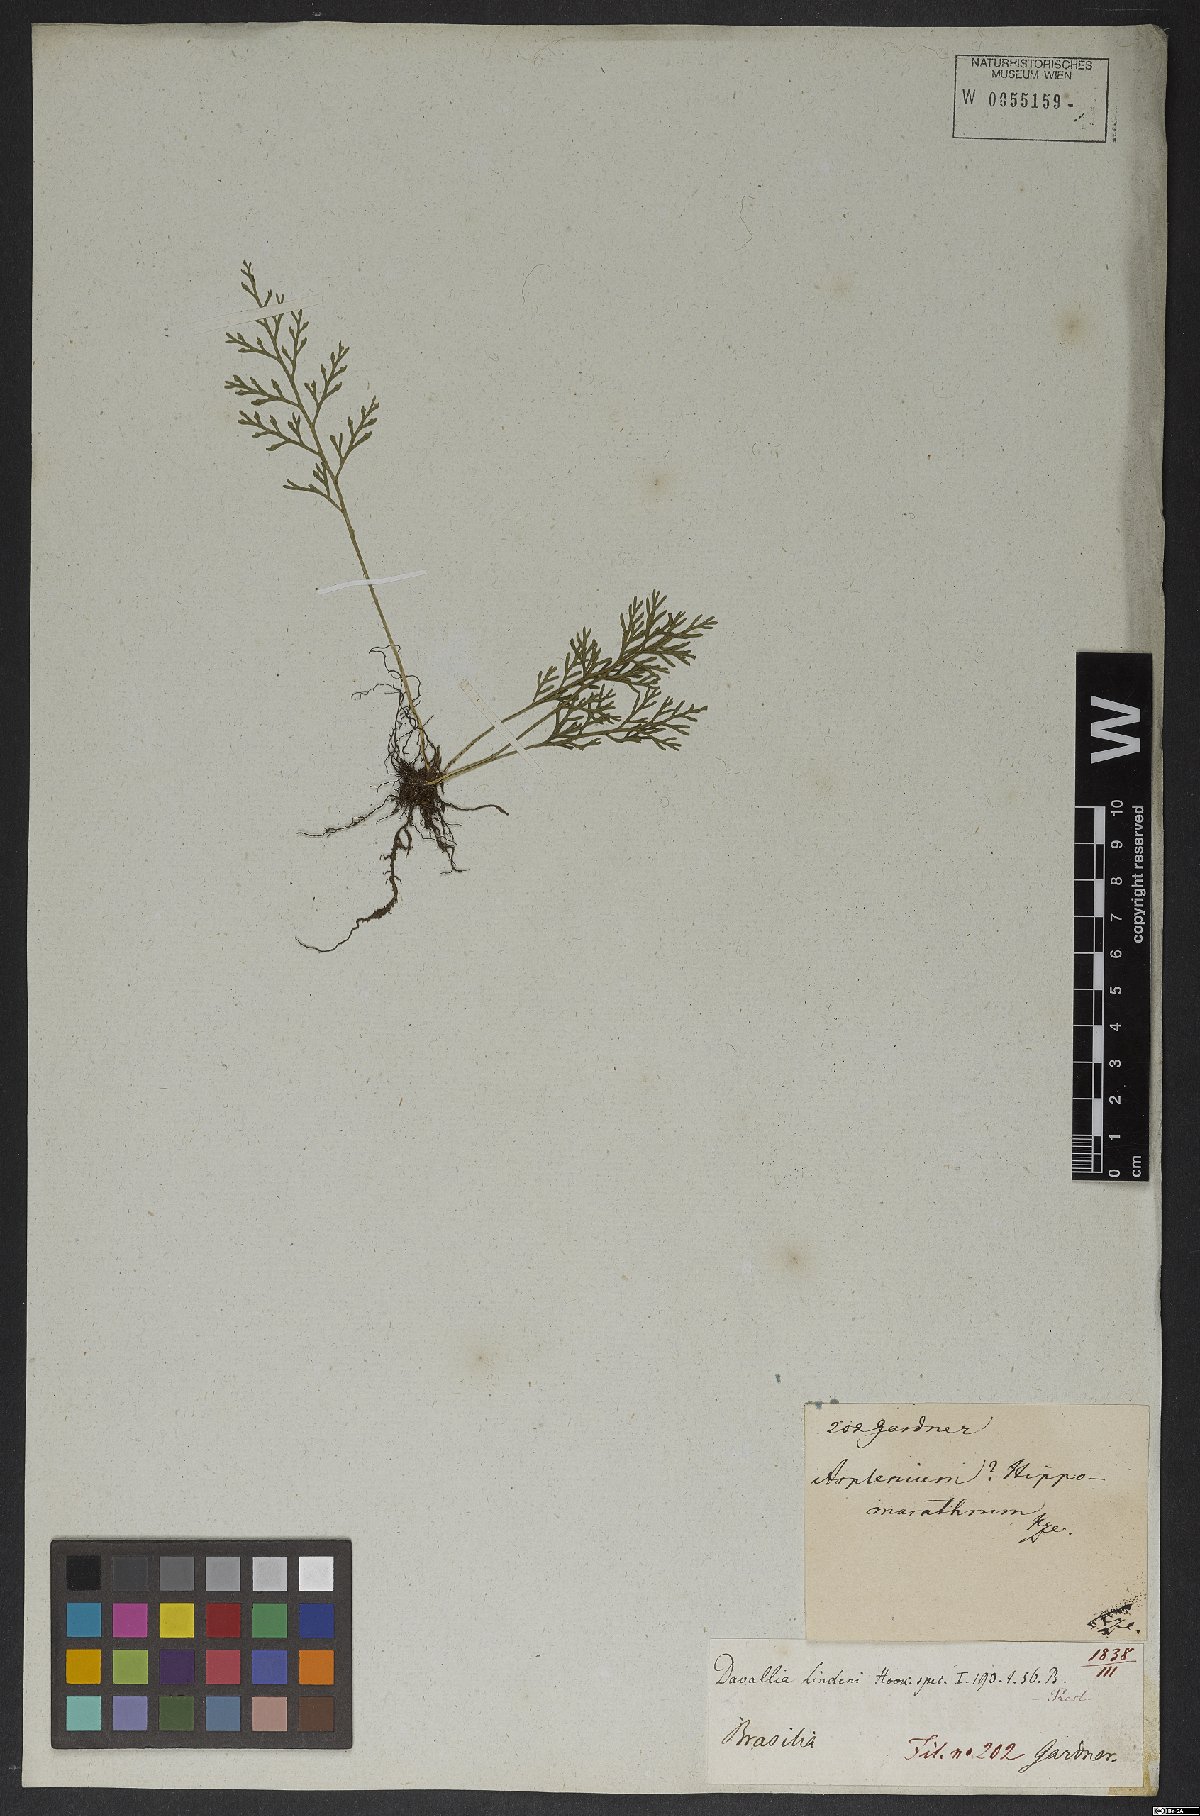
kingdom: Plantae
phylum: Tracheophyta
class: Polypodiopsida
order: Polypodiales
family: Aspleniaceae
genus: Asplenium
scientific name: Asplenium theciferum
